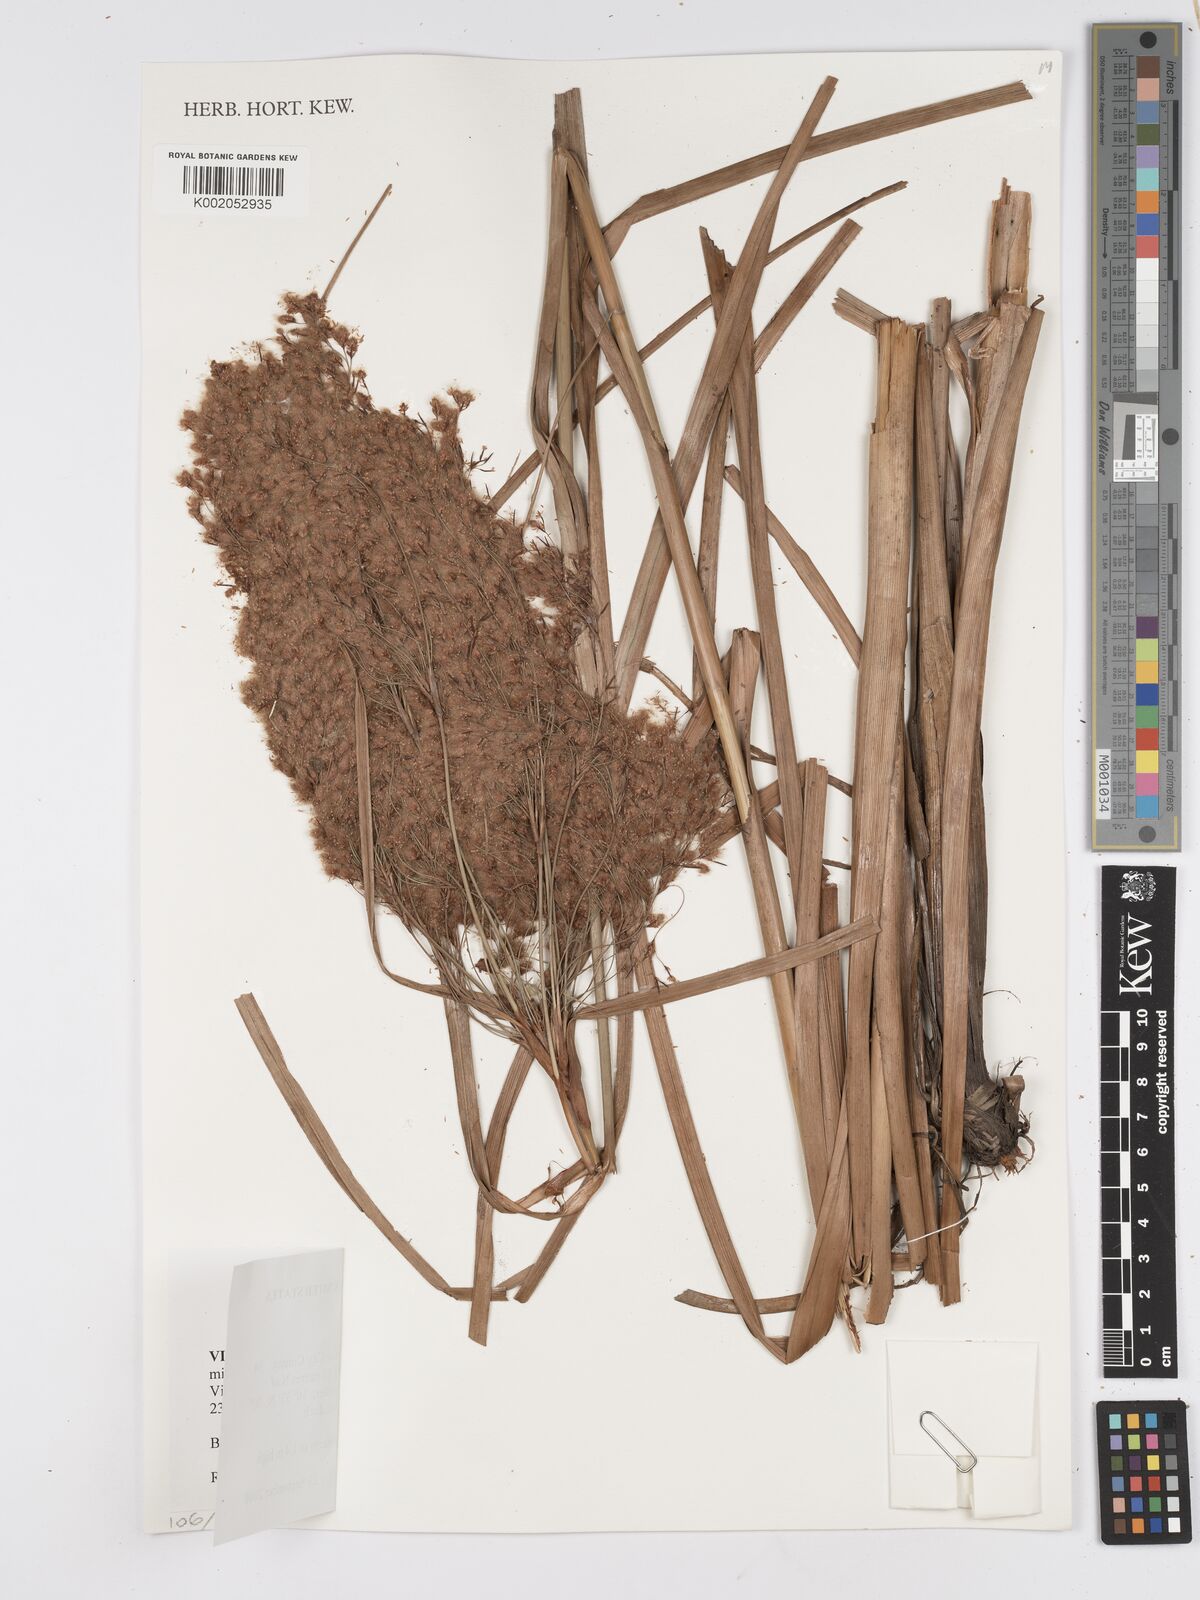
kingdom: Plantae
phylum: Tracheophyta
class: Liliopsida
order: Poales
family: Cyperaceae
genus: Scirpus
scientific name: Scirpus
